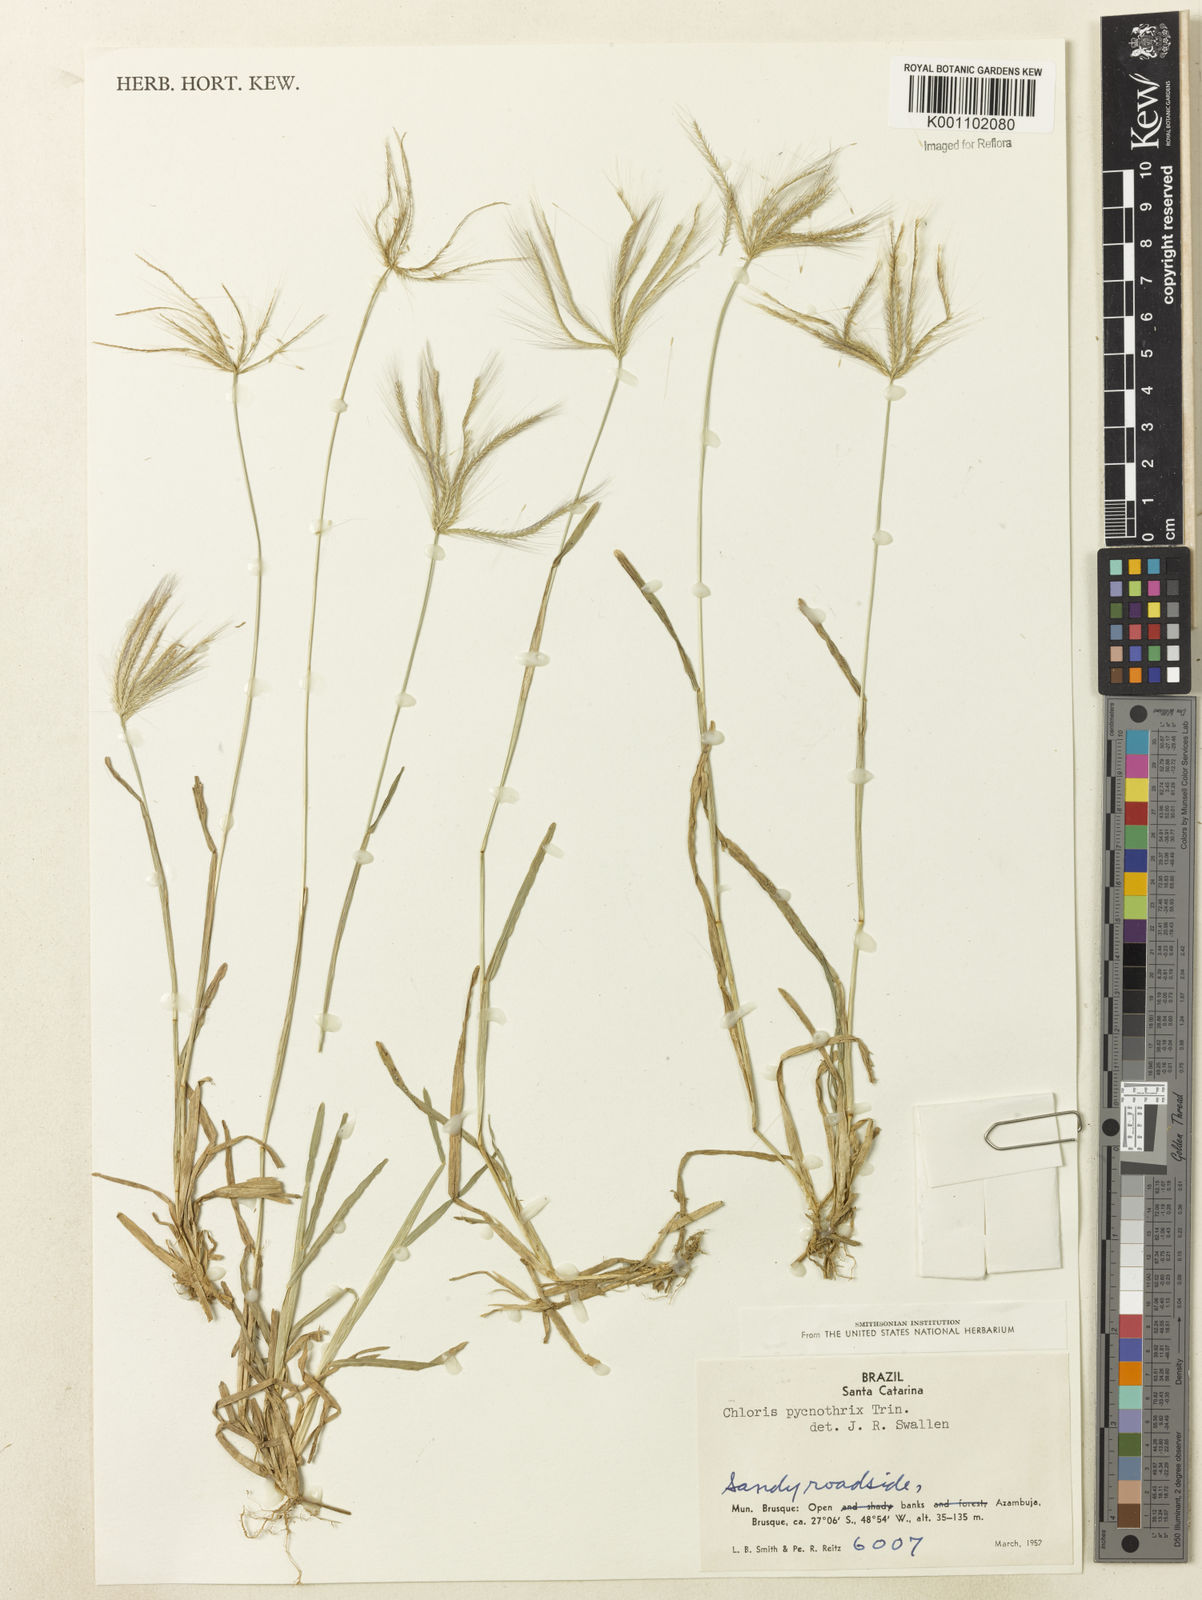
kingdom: Plantae
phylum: Tracheophyta
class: Liliopsida
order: Poales
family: Poaceae
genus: Chloris
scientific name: Chloris pycnothrix
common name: Spiderweb chloris
